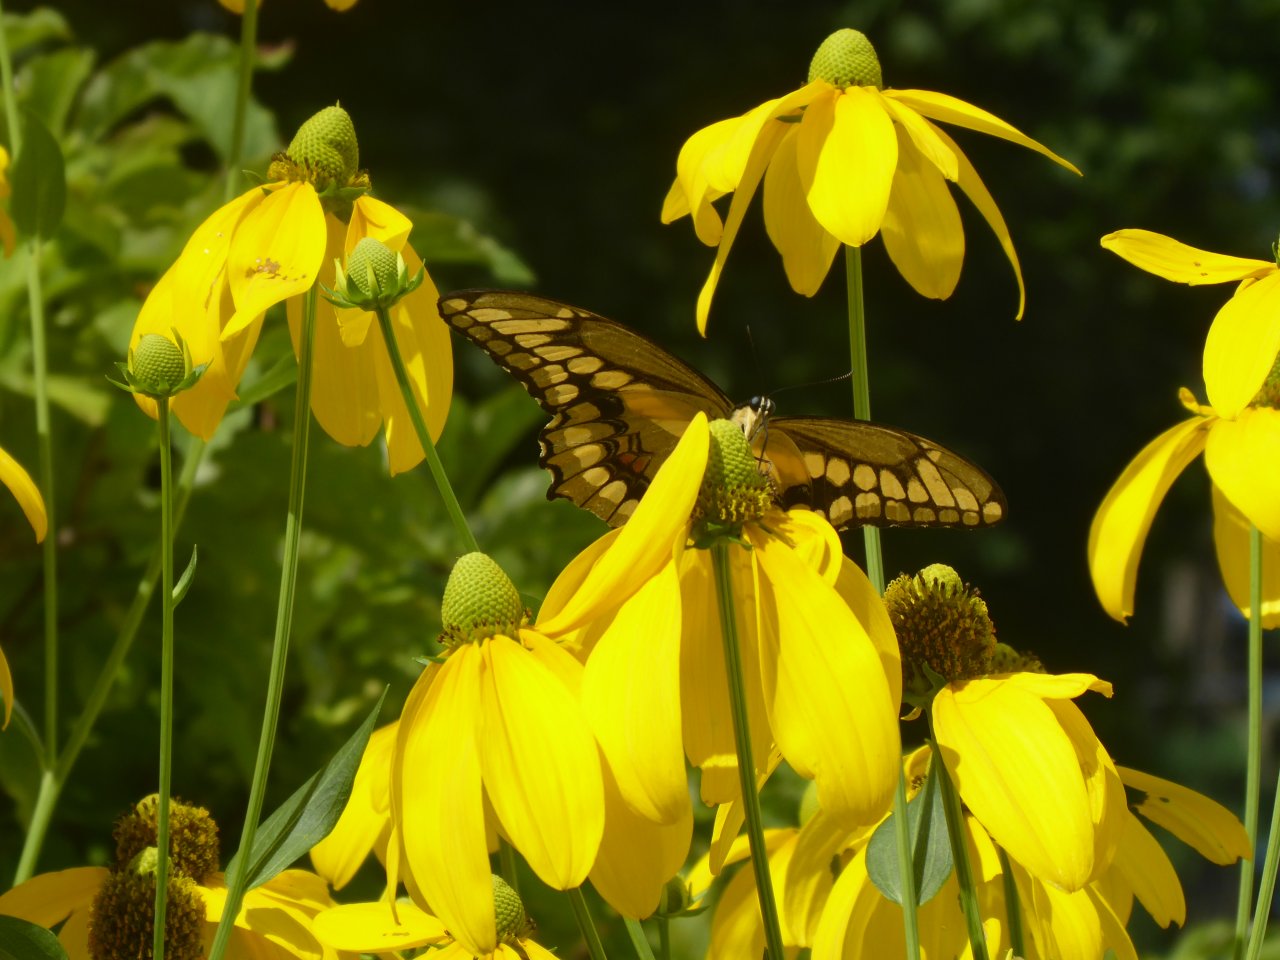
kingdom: Animalia
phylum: Arthropoda
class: Insecta
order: Lepidoptera
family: Papilionidae
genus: Papilio
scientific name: Papilio cresphontes
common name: Eastern Giant Swallowtail
